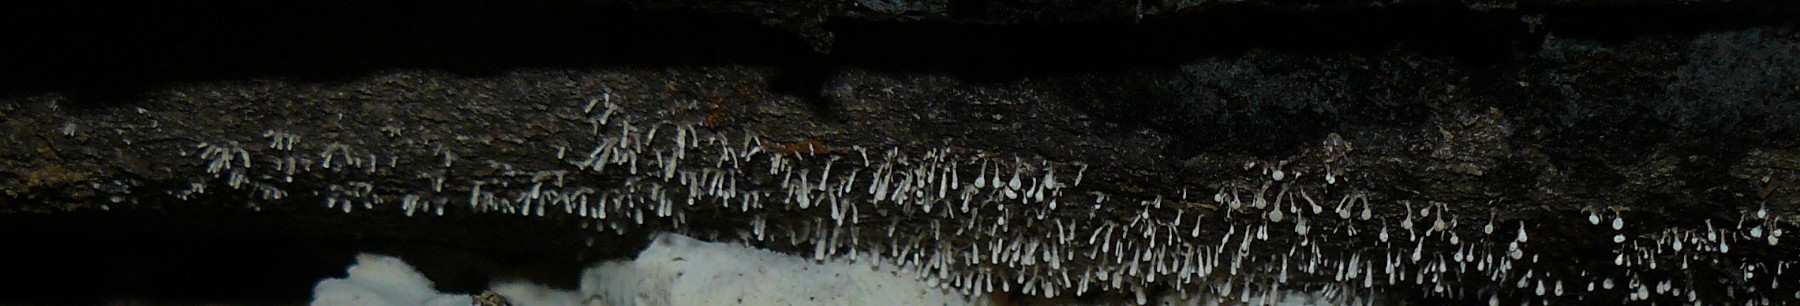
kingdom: Fungi
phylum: Basidiomycota
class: Atractiellomycetes
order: Atractiellales
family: Phleogenaceae
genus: Phleogena
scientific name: Phleogena faginea
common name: pudderkølle
